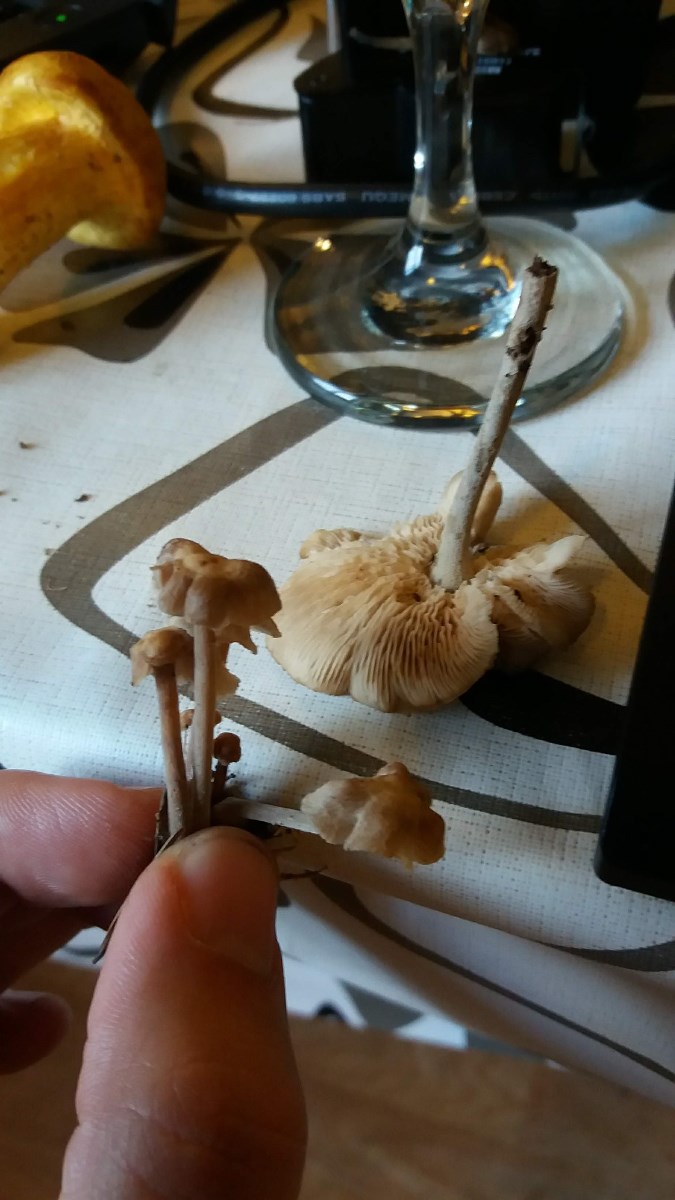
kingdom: Fungi
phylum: Basidiomycota
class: Agaricomycetes
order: Agaricales
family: Omphalotaceae
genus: Collybiopsis
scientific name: Collybiopsis confluens
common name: knippe-fladhat
